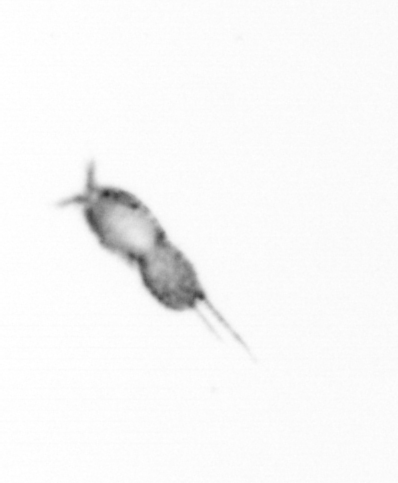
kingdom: Animalia
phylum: Arthropoda
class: Copepoda
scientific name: Copepoda
